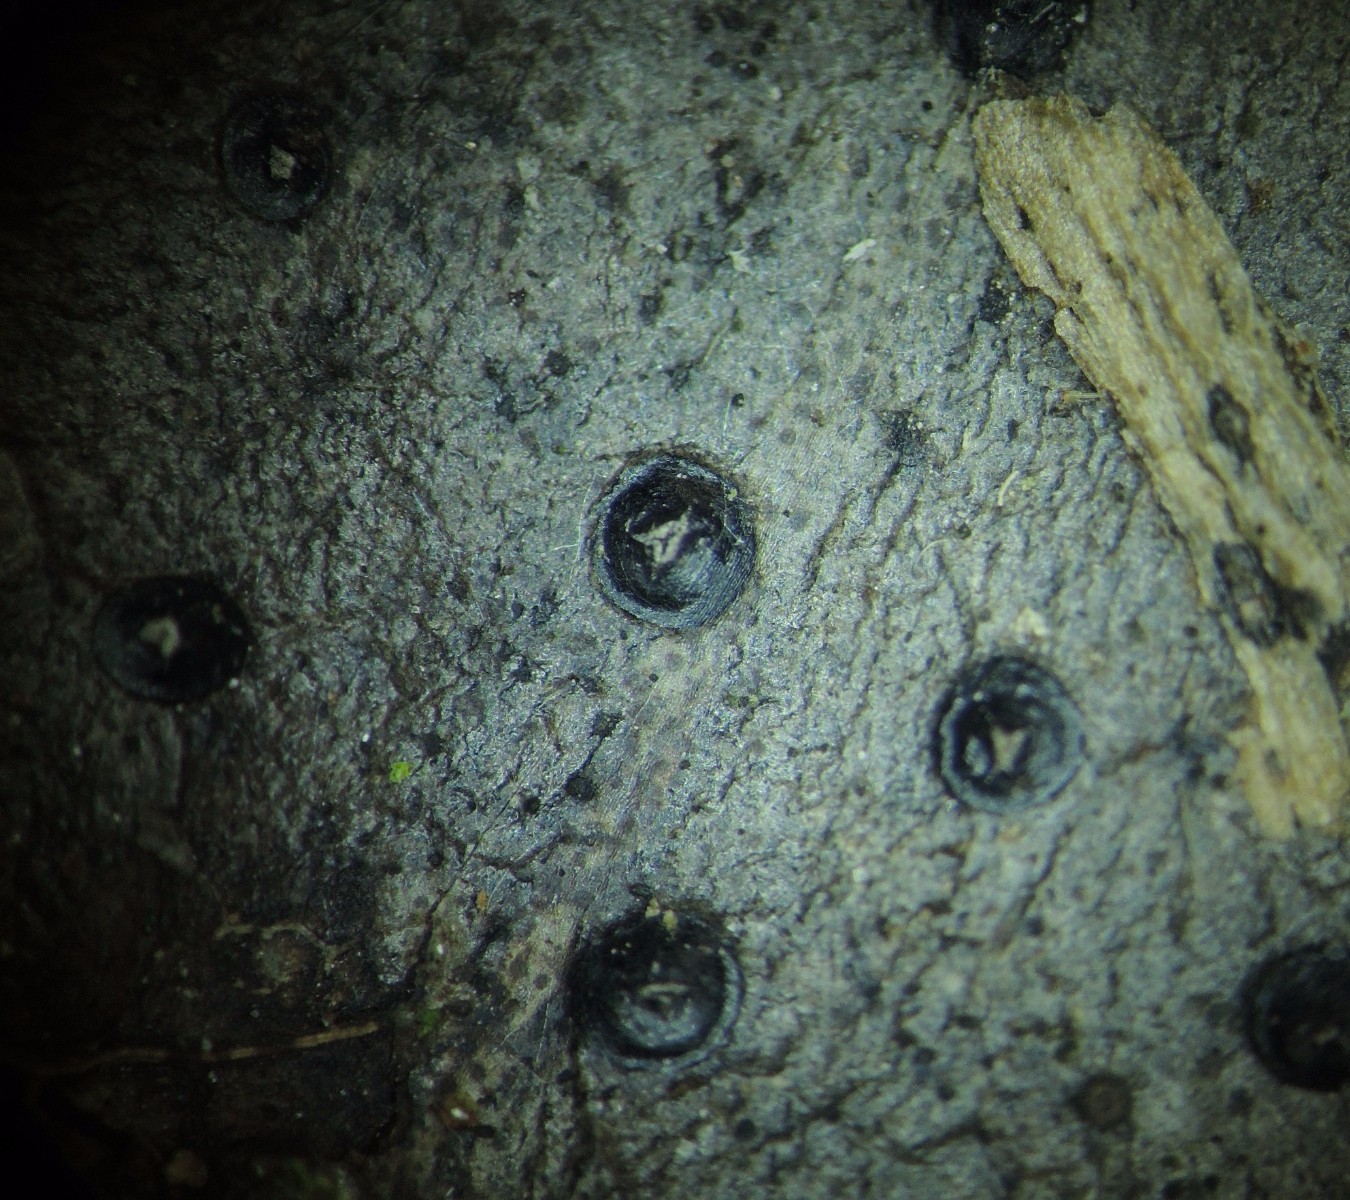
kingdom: Fungi
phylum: Ascomycota
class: Leotiomycetes
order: Phacidiales
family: Phacidiaceae
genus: Phacidium
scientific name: Phacidium lauri
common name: kristtorn-tandskive
